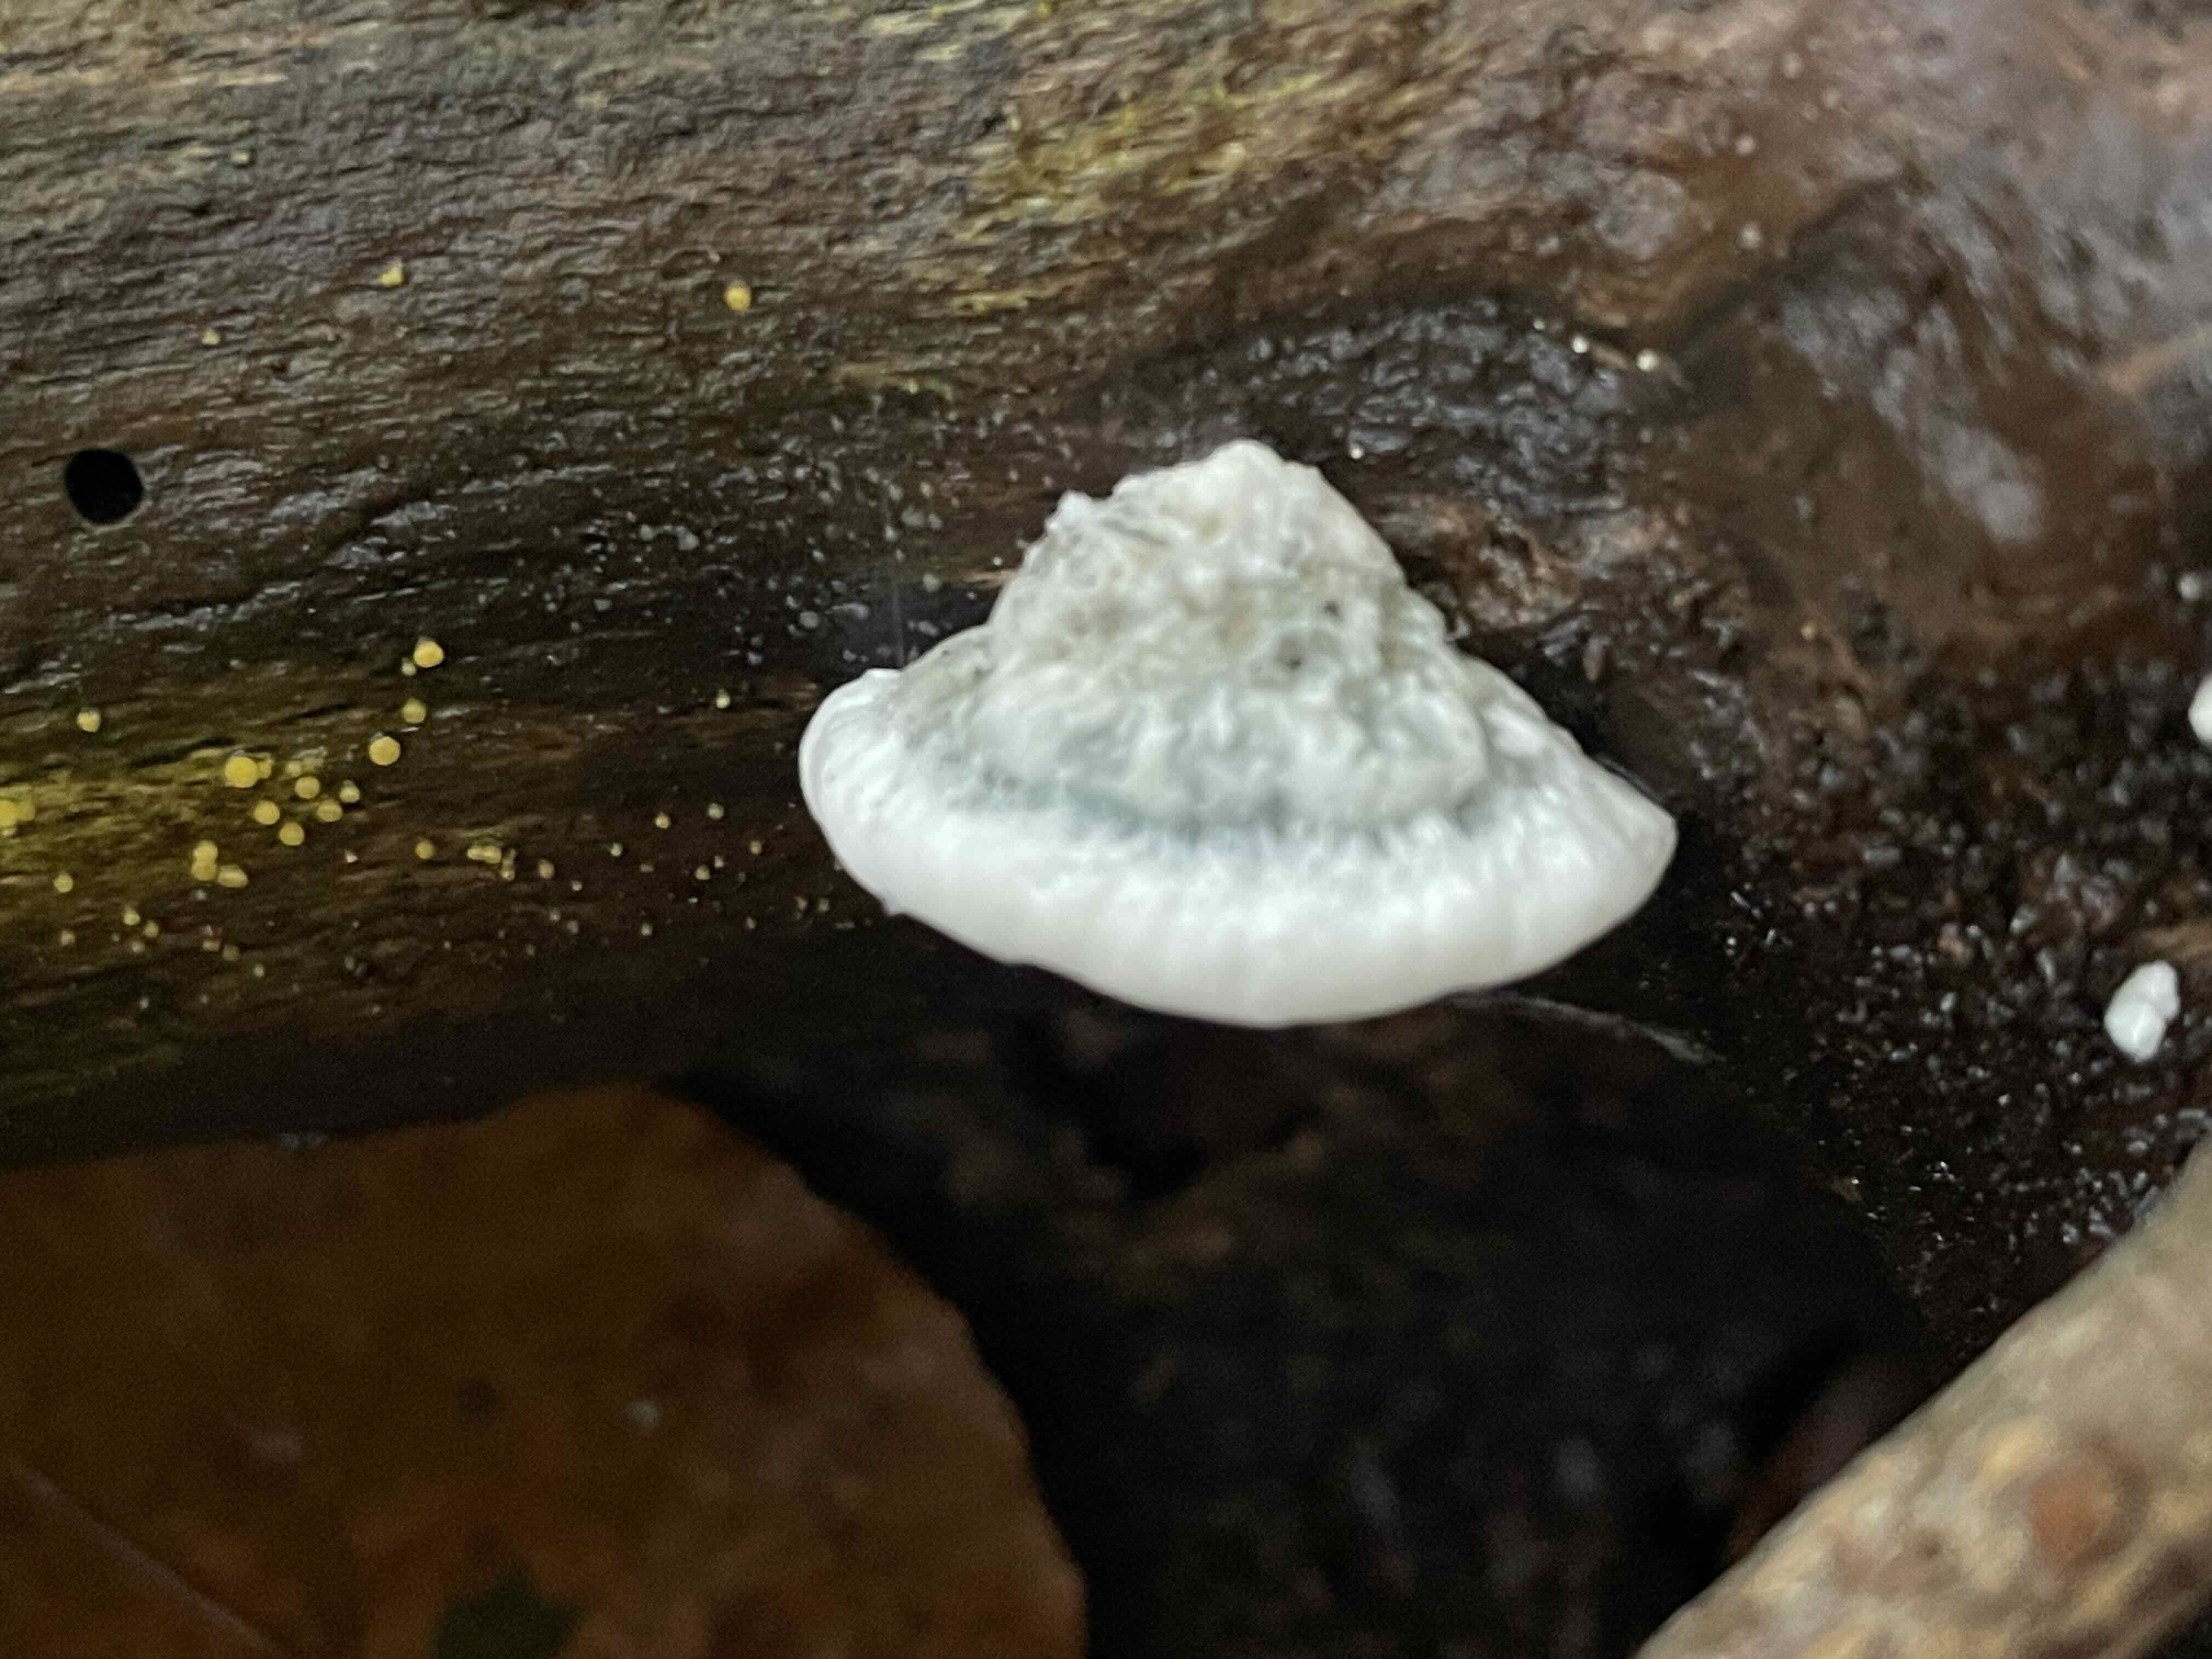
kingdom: Fungi
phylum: Basidiomycota
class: Agaricomycetes
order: Polyporales
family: Polyporaceae
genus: Cyanosporus
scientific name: Cyanosporus alni
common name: blegblå kødporesvamp
